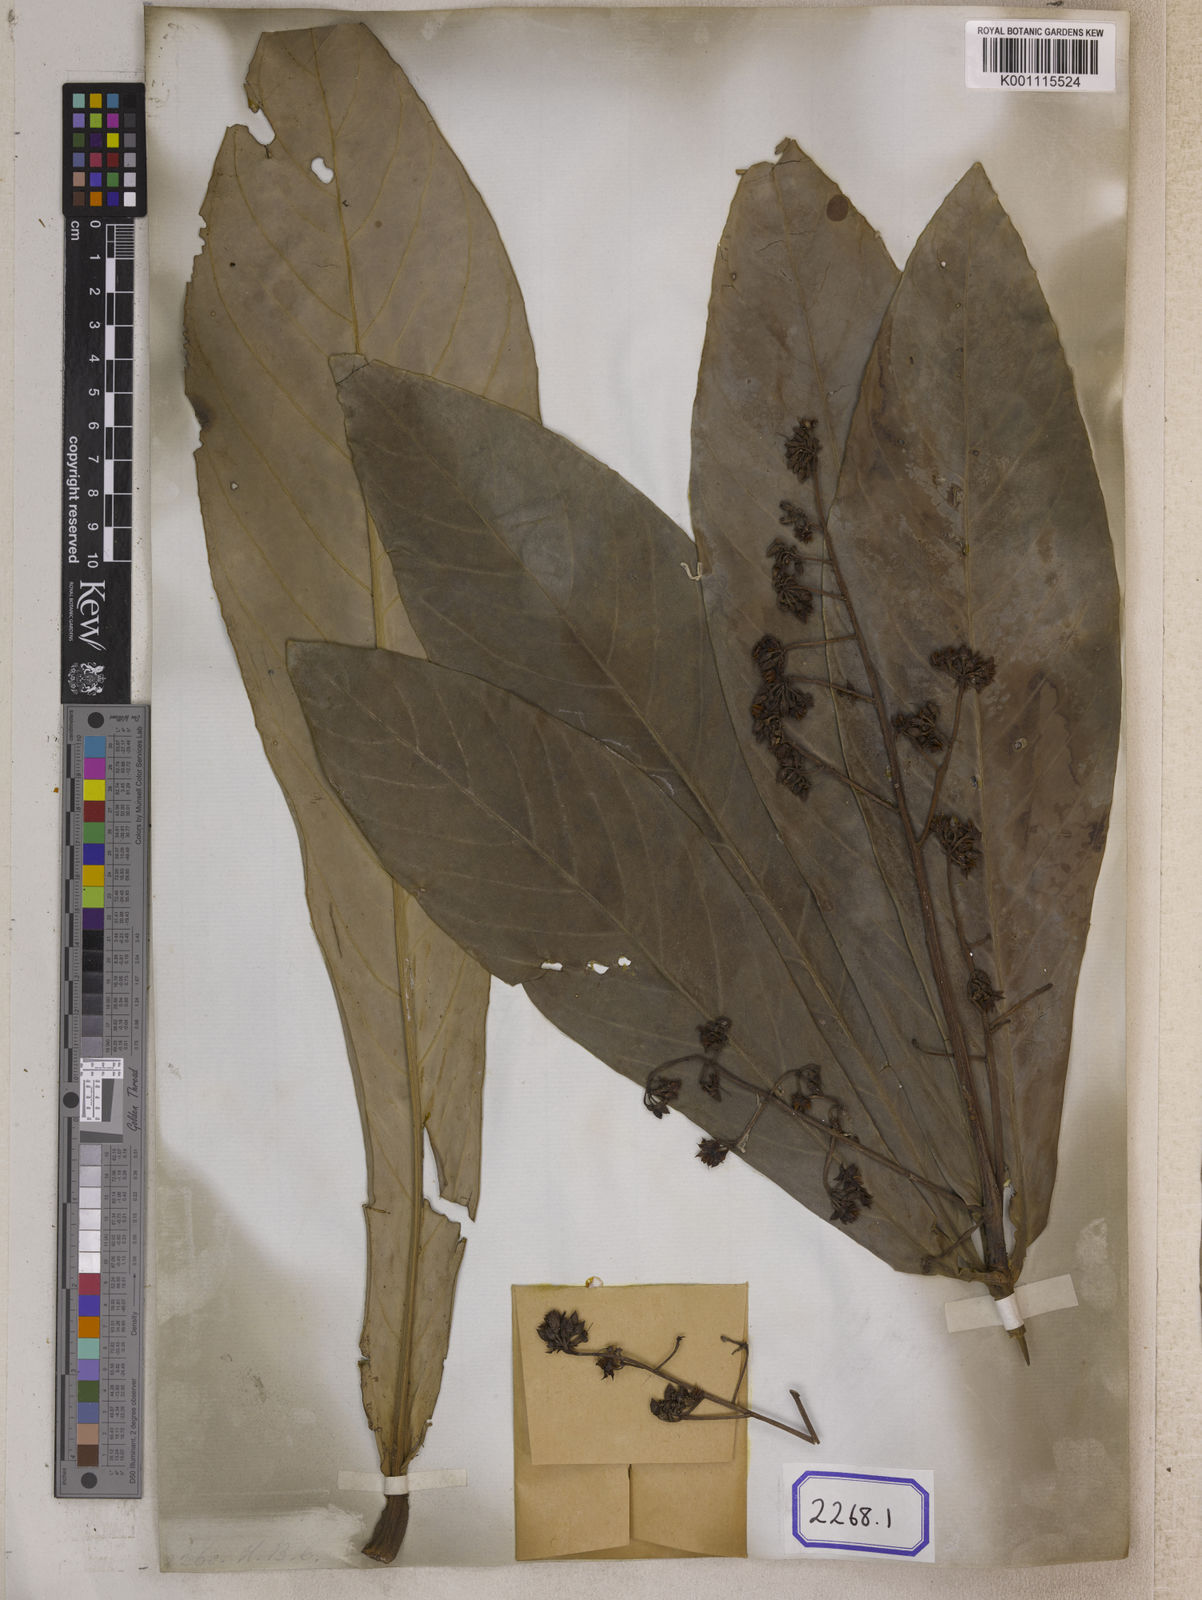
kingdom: Plantae
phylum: Tracheophyta
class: Magnoliopsida
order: Ericales
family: Primulaceae
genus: Ardisia
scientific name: Ardisia colorata
